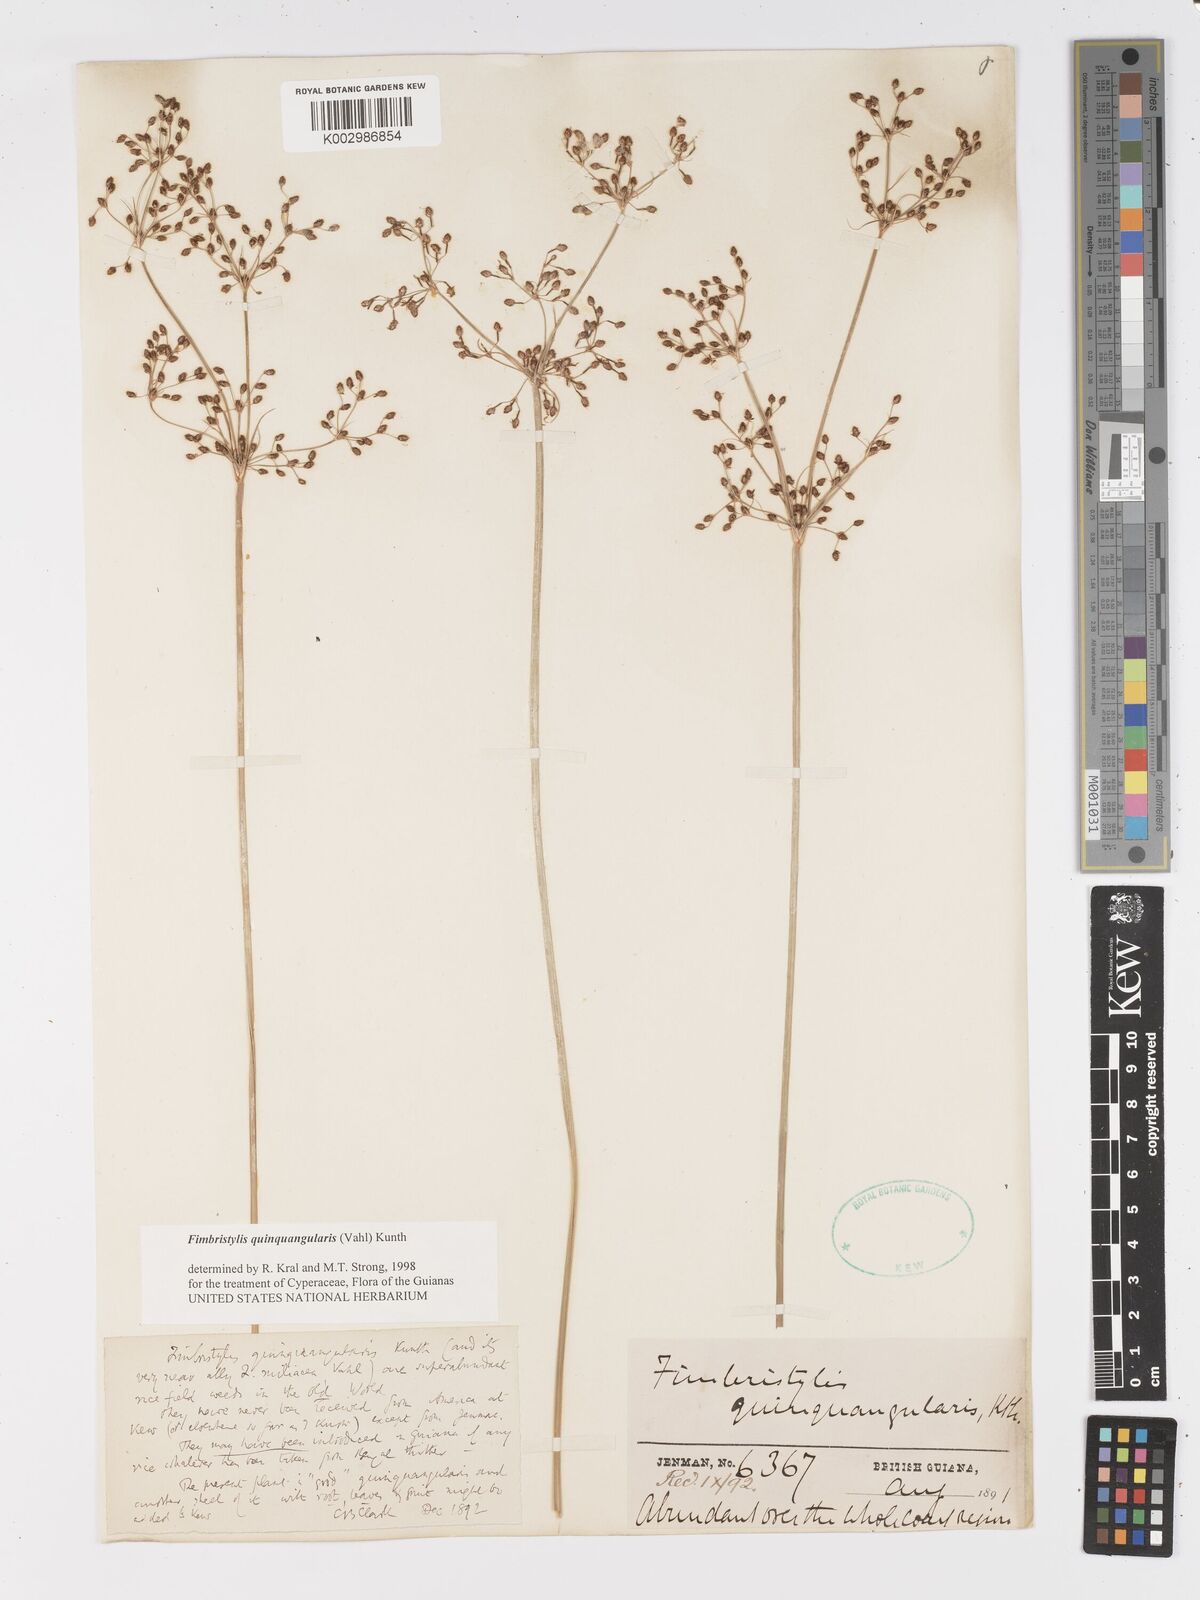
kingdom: Plantae
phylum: Tracheophyta
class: Liliopsida
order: Poales
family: Cyperaceae
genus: Fimbristylis
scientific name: Fimbristylis quinquangularis
